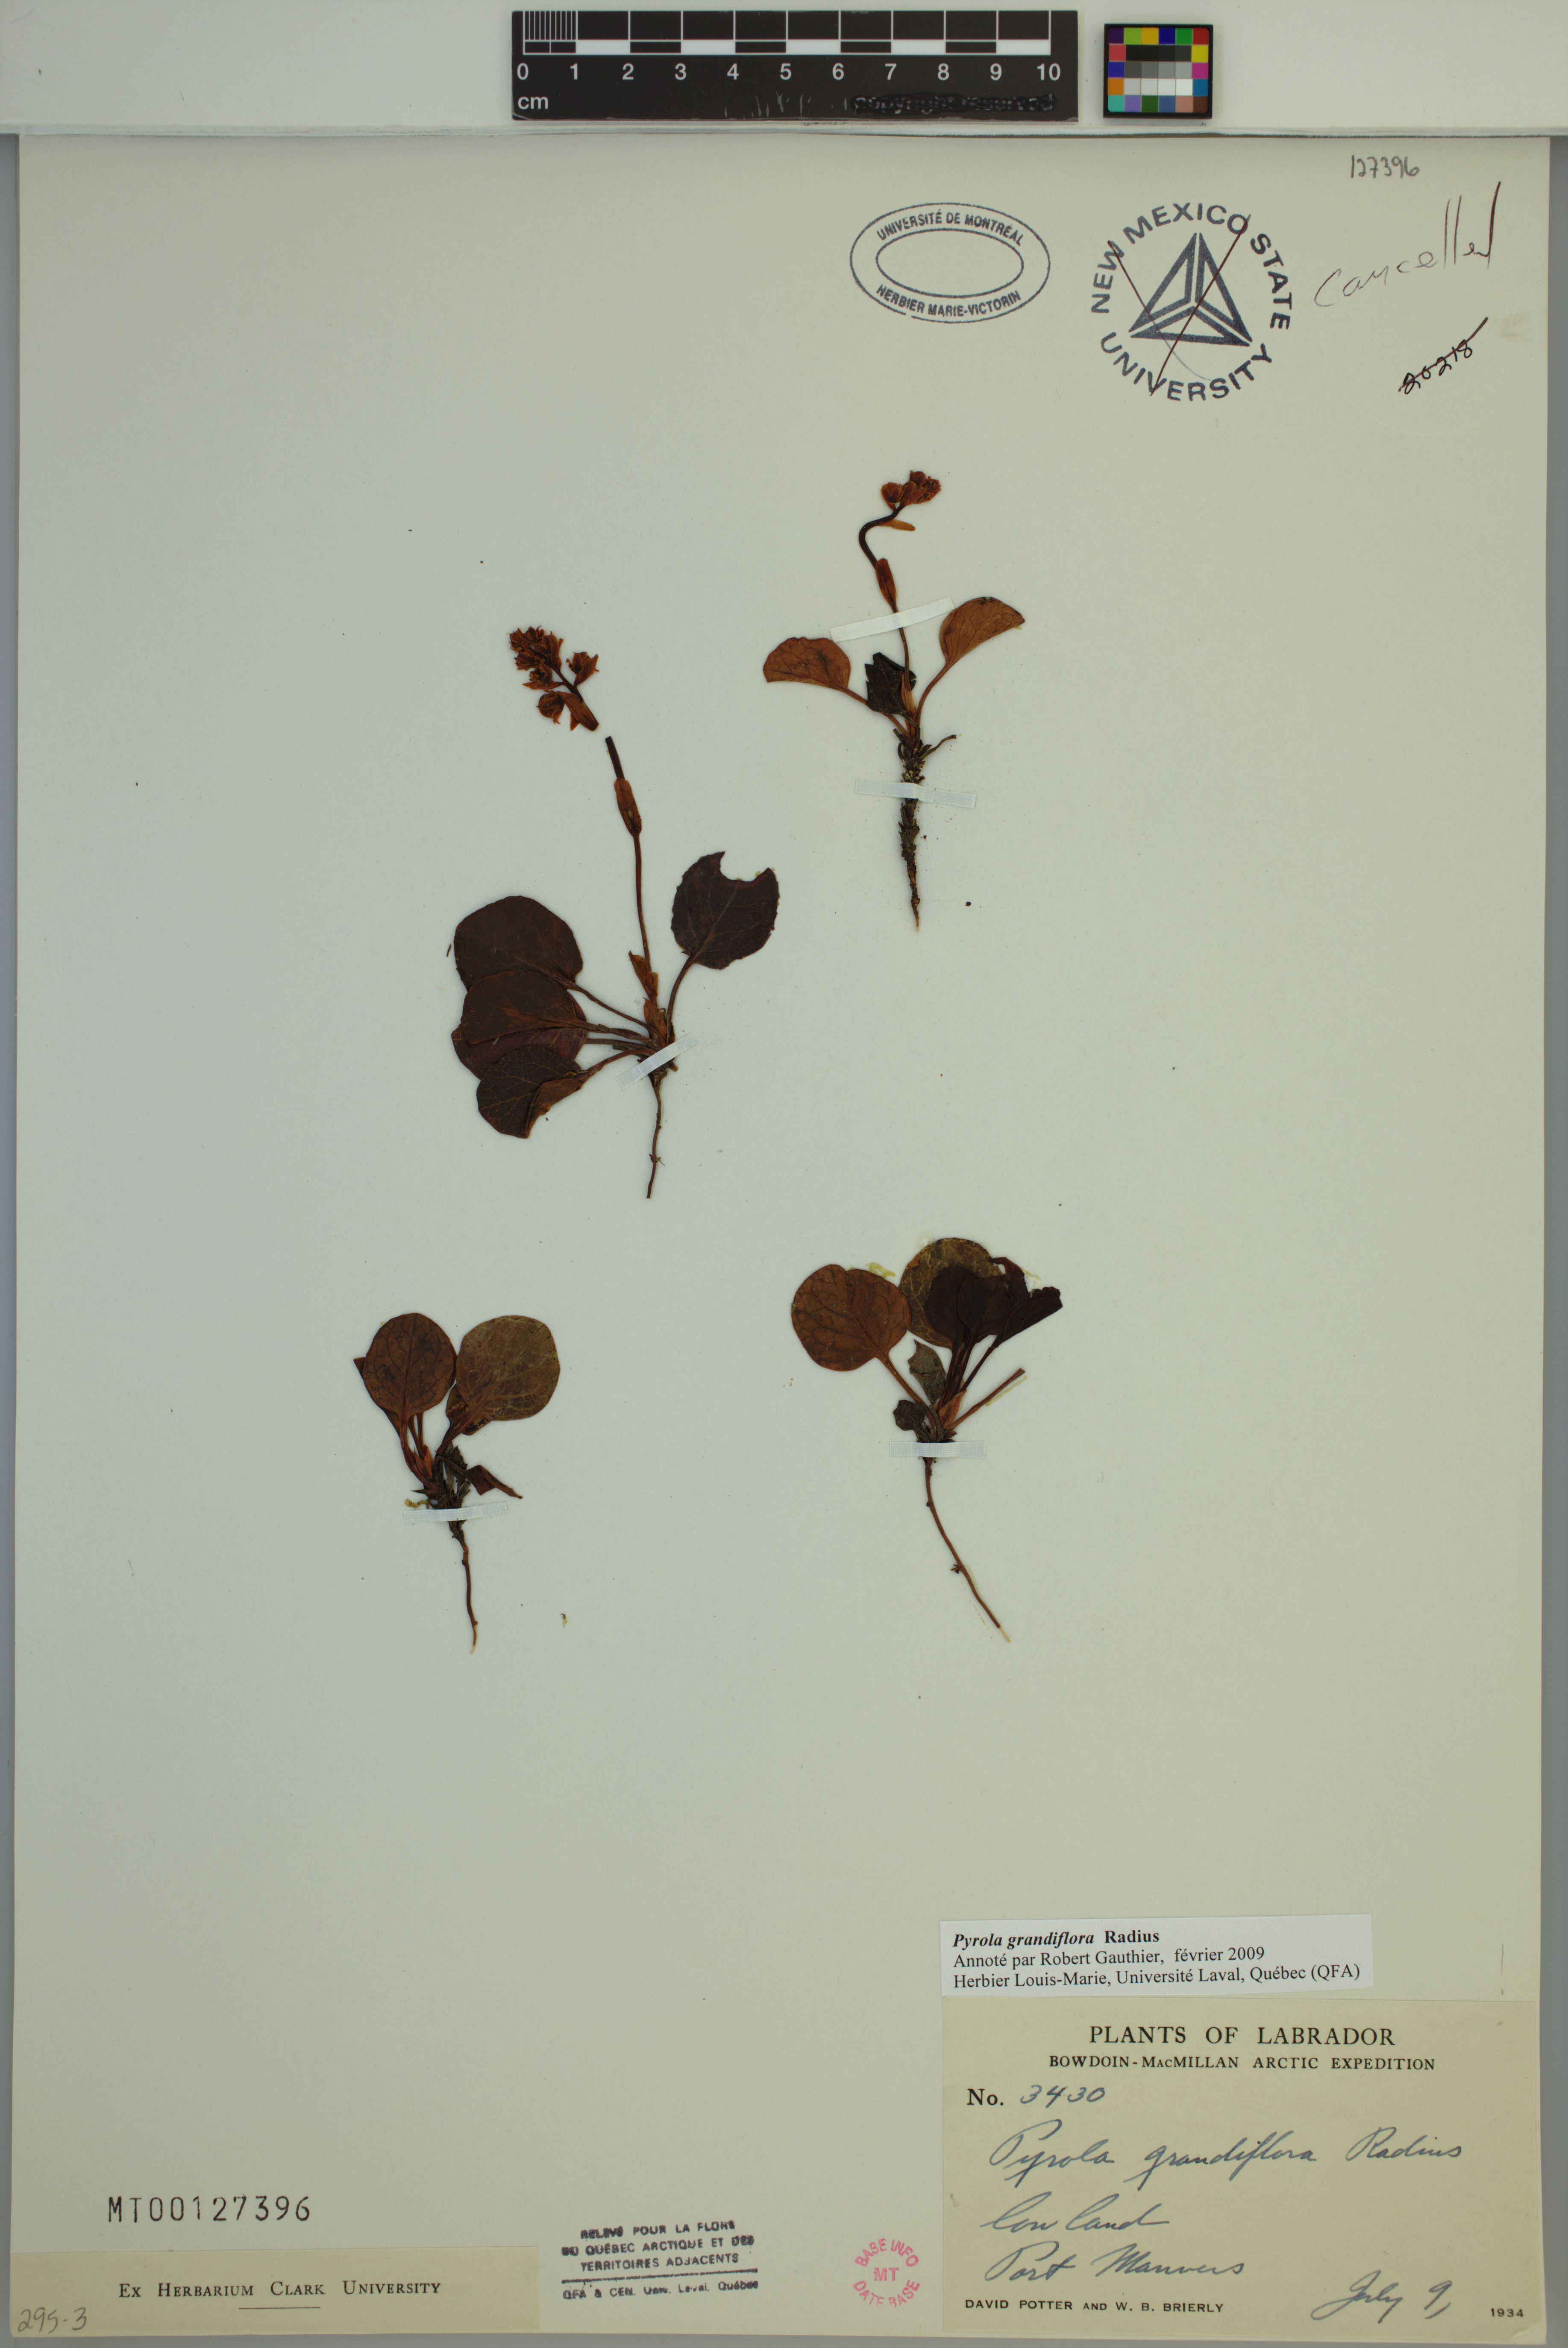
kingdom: Plantae
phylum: Tracheophyta
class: Magnoliopsida
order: Ericales
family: Ericaceae
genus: Pyrola
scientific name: Pyrola grandiflora
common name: Arctic pyrola
